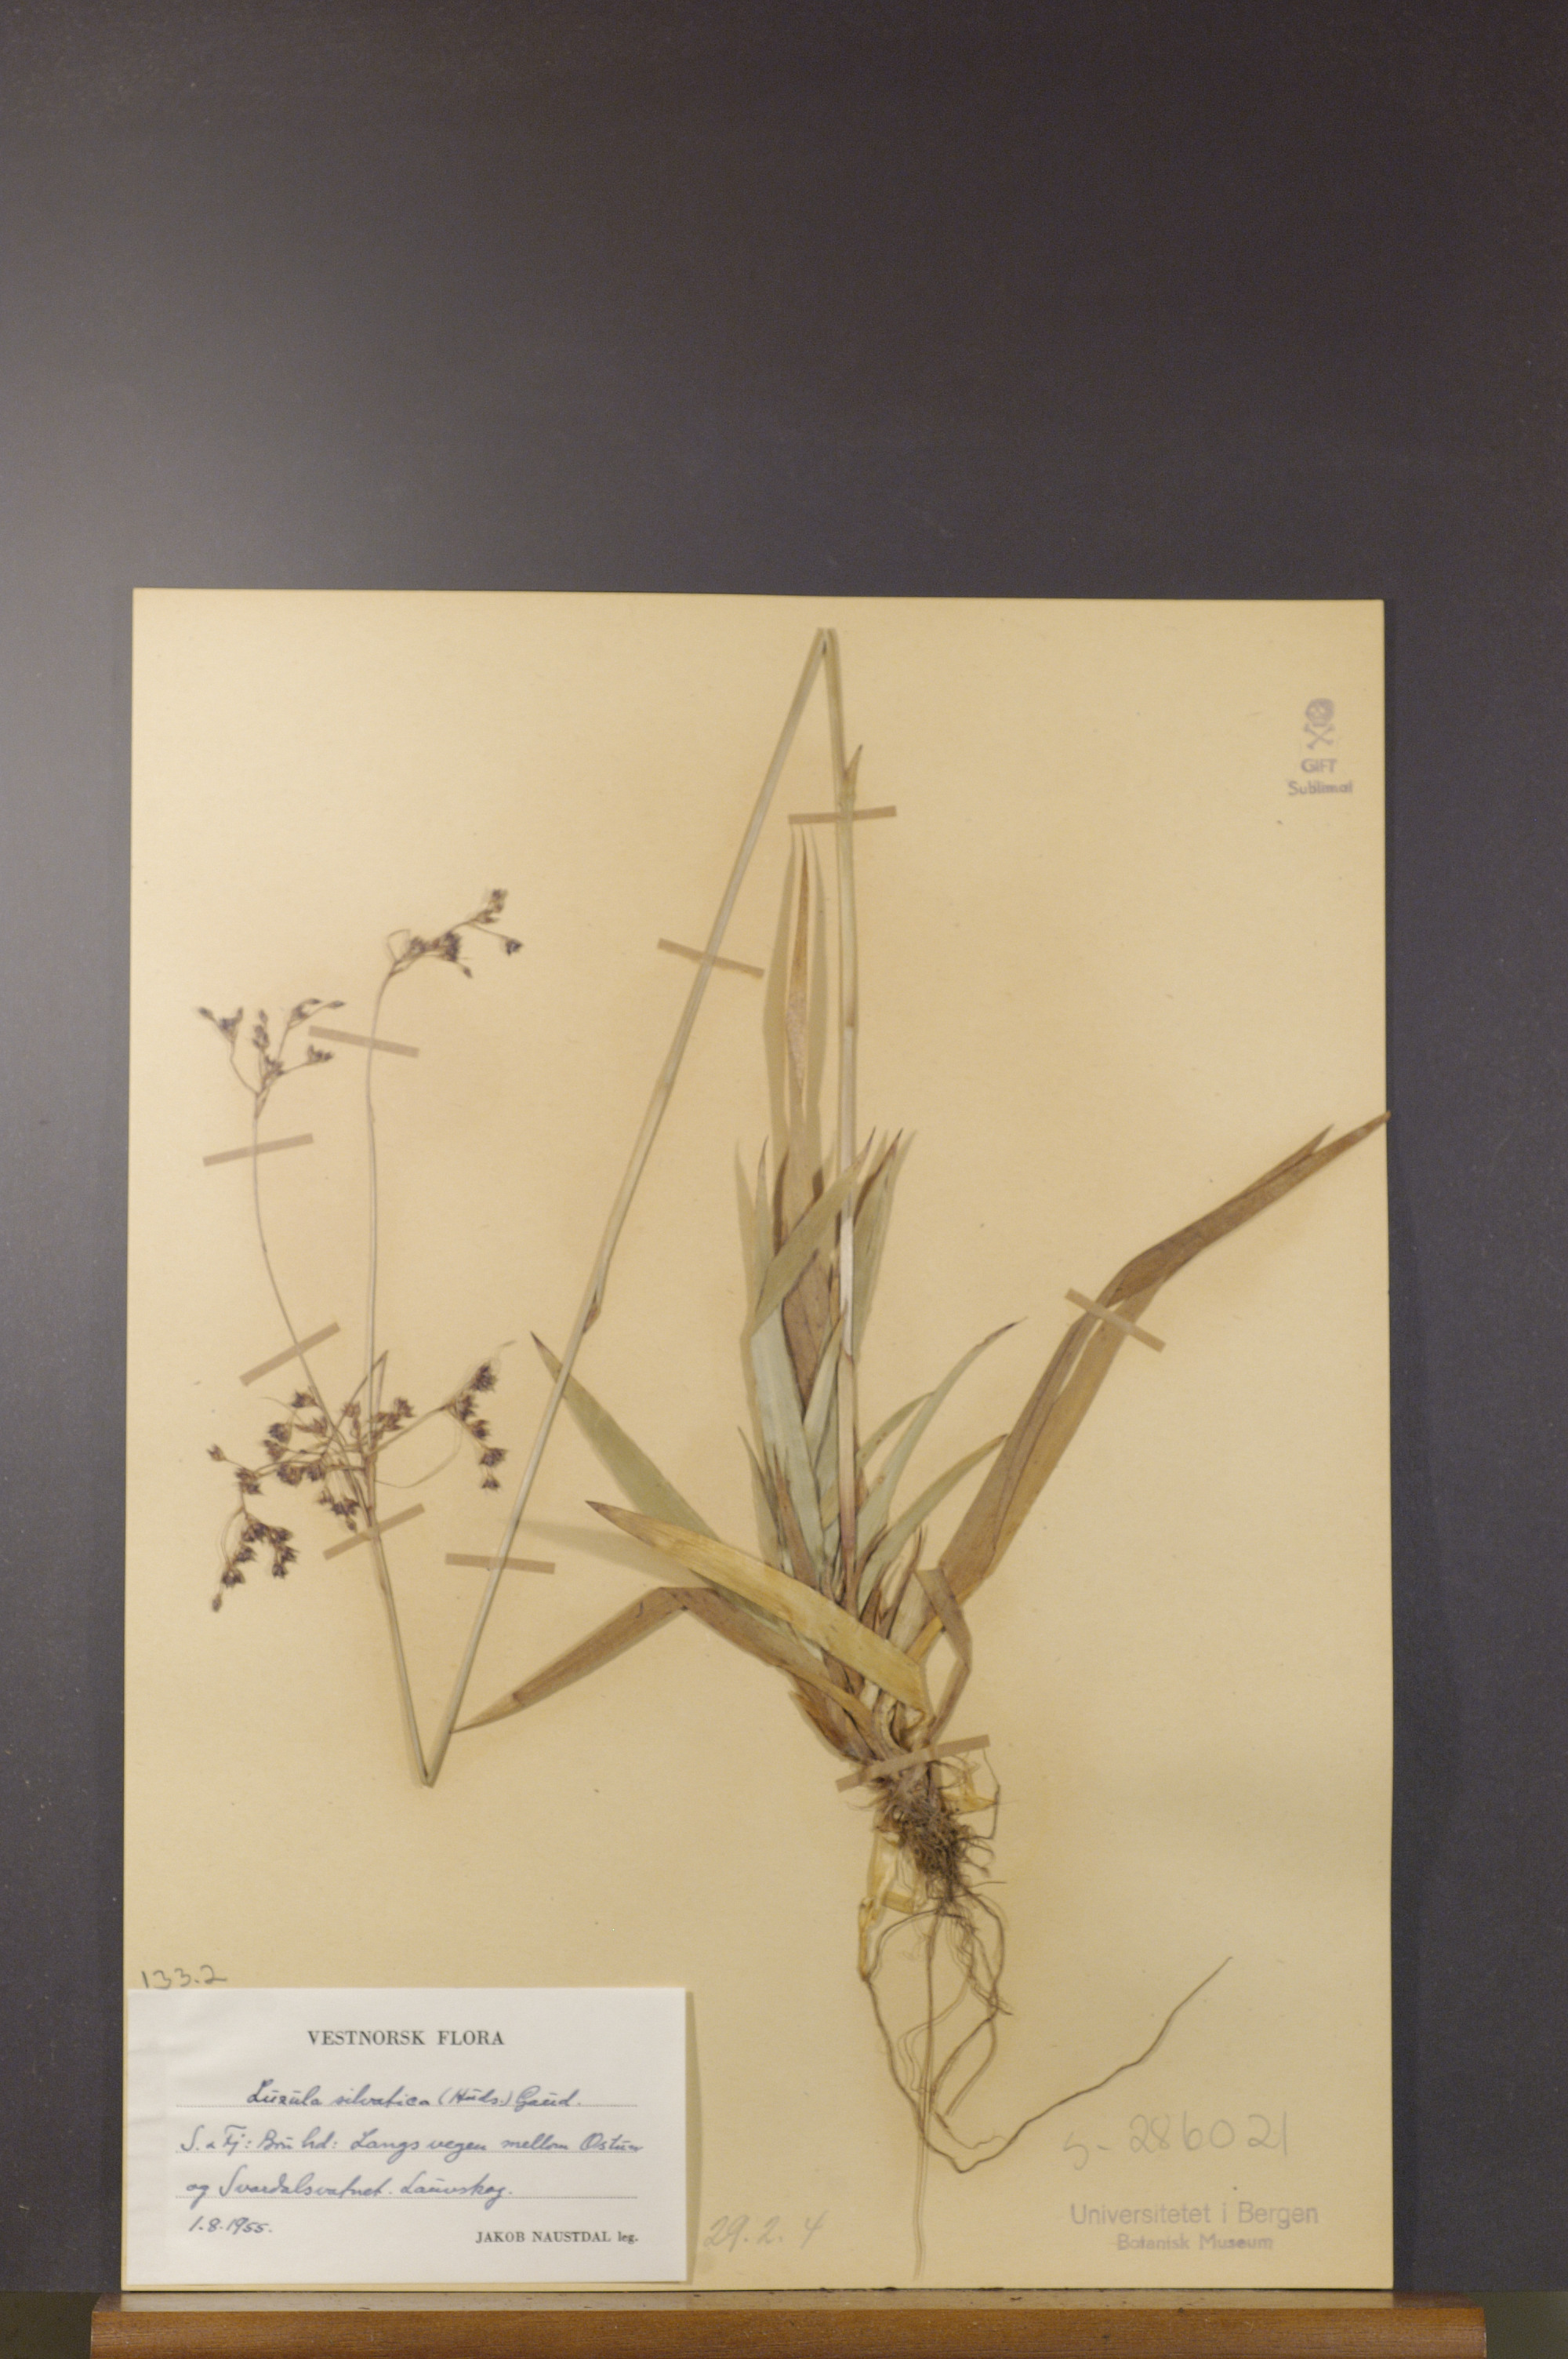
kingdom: Plantae
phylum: Tracheophyta
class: Liliopsida
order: Poales
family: Juncaceae
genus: Luzula
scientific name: Luzula sylvatica
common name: Great wood-rush
